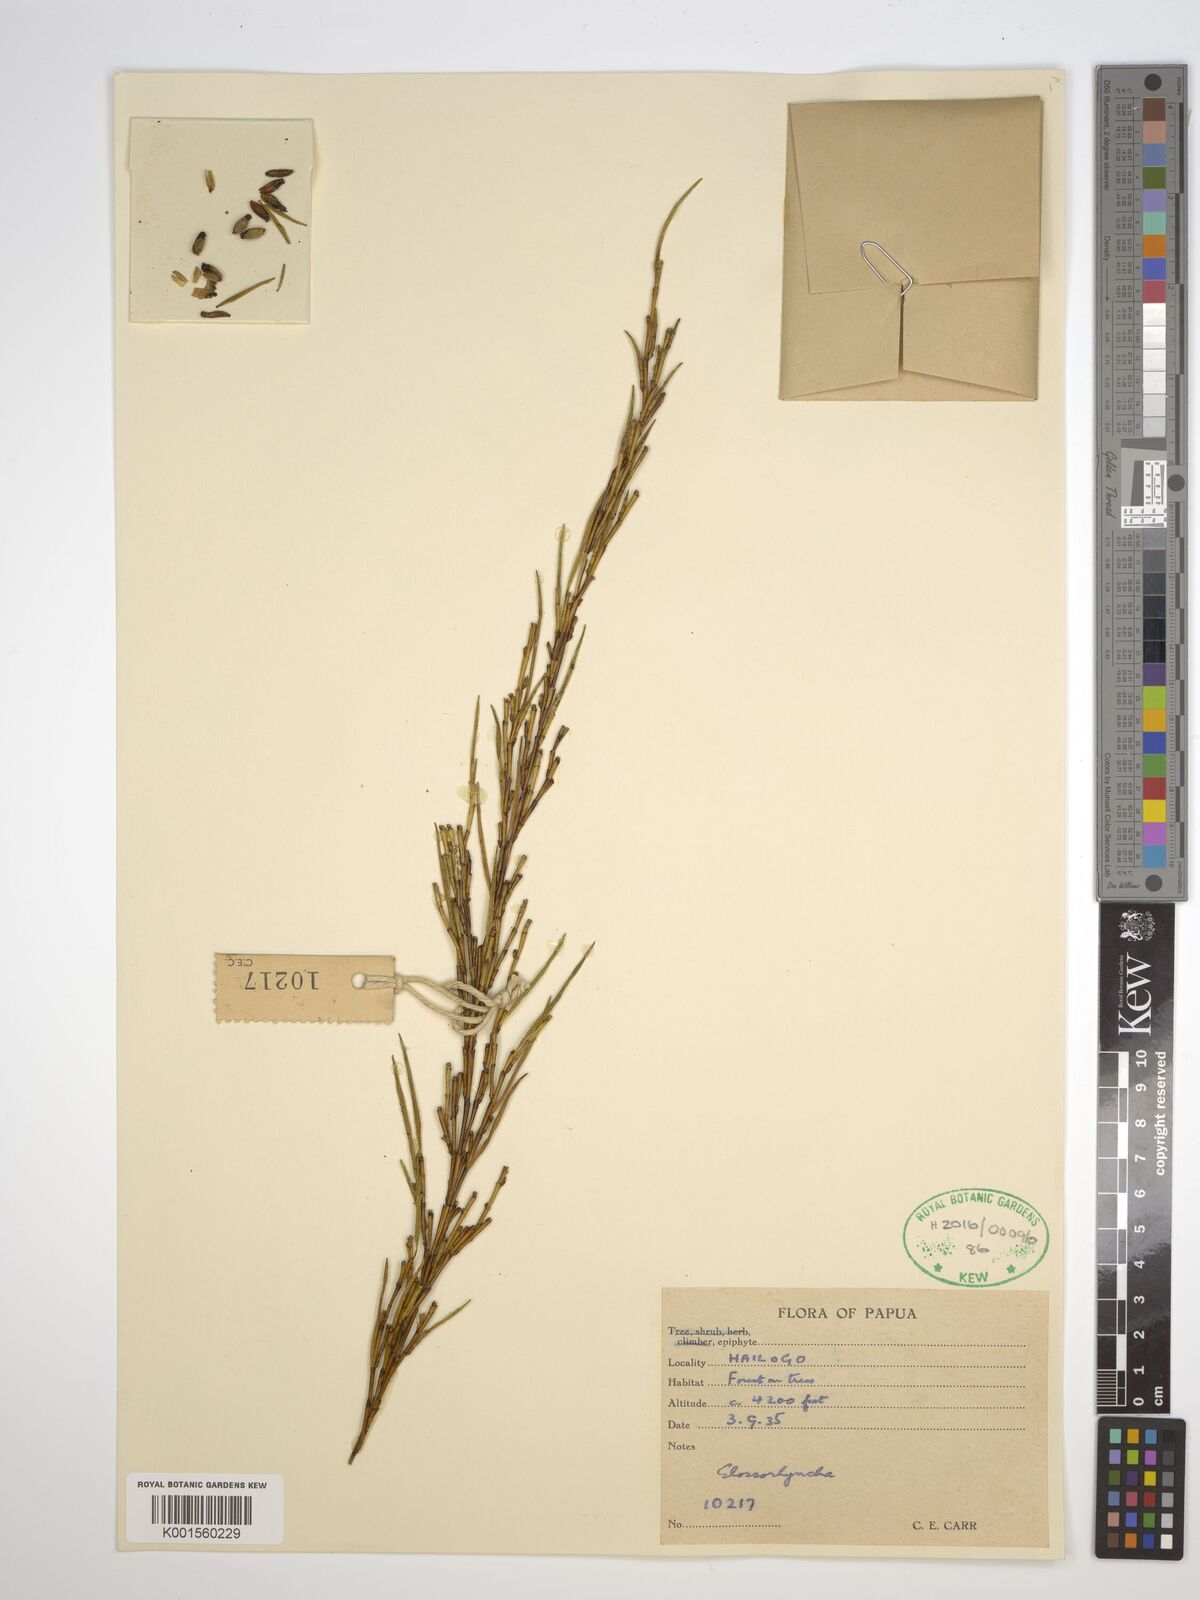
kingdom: Plantae
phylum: Tracheophyta
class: Liliopsida
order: Asparagales
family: Orchidaceae
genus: Glomera
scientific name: Glomera
